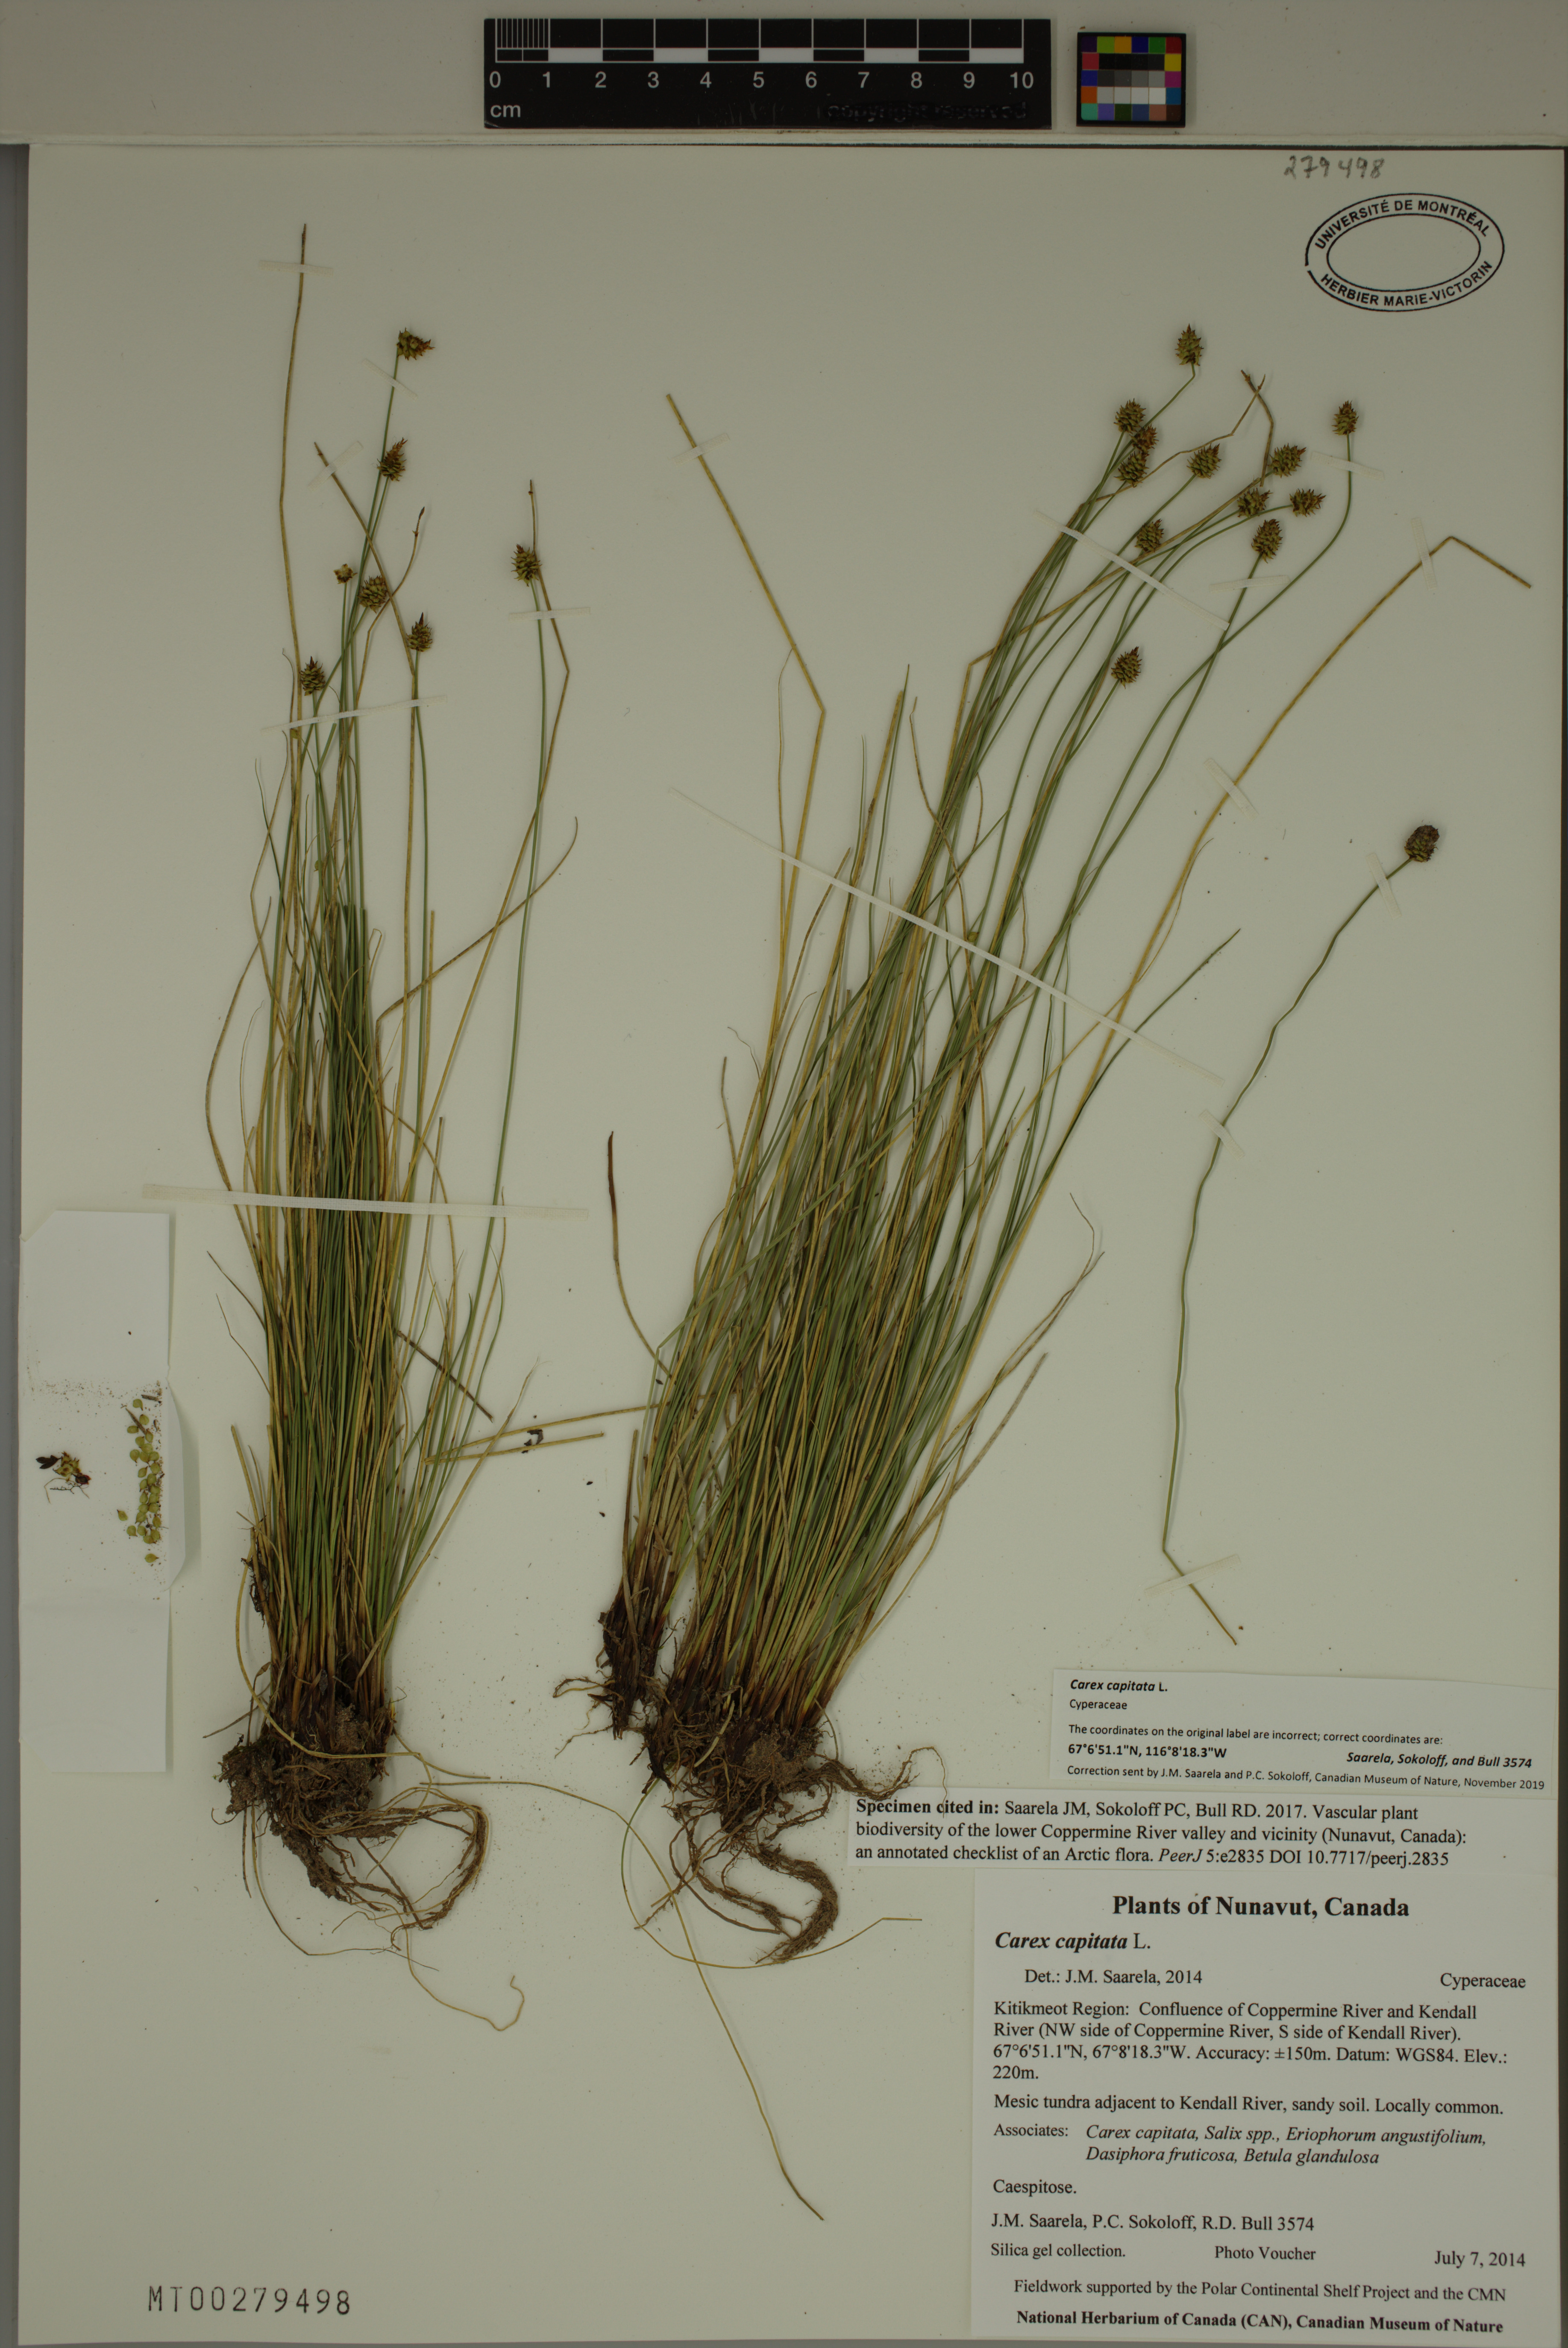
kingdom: Plantae
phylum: Tracheophyta
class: Liliopsida
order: Poales
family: Cyperaceae
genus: Carex
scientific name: Carex capitata
